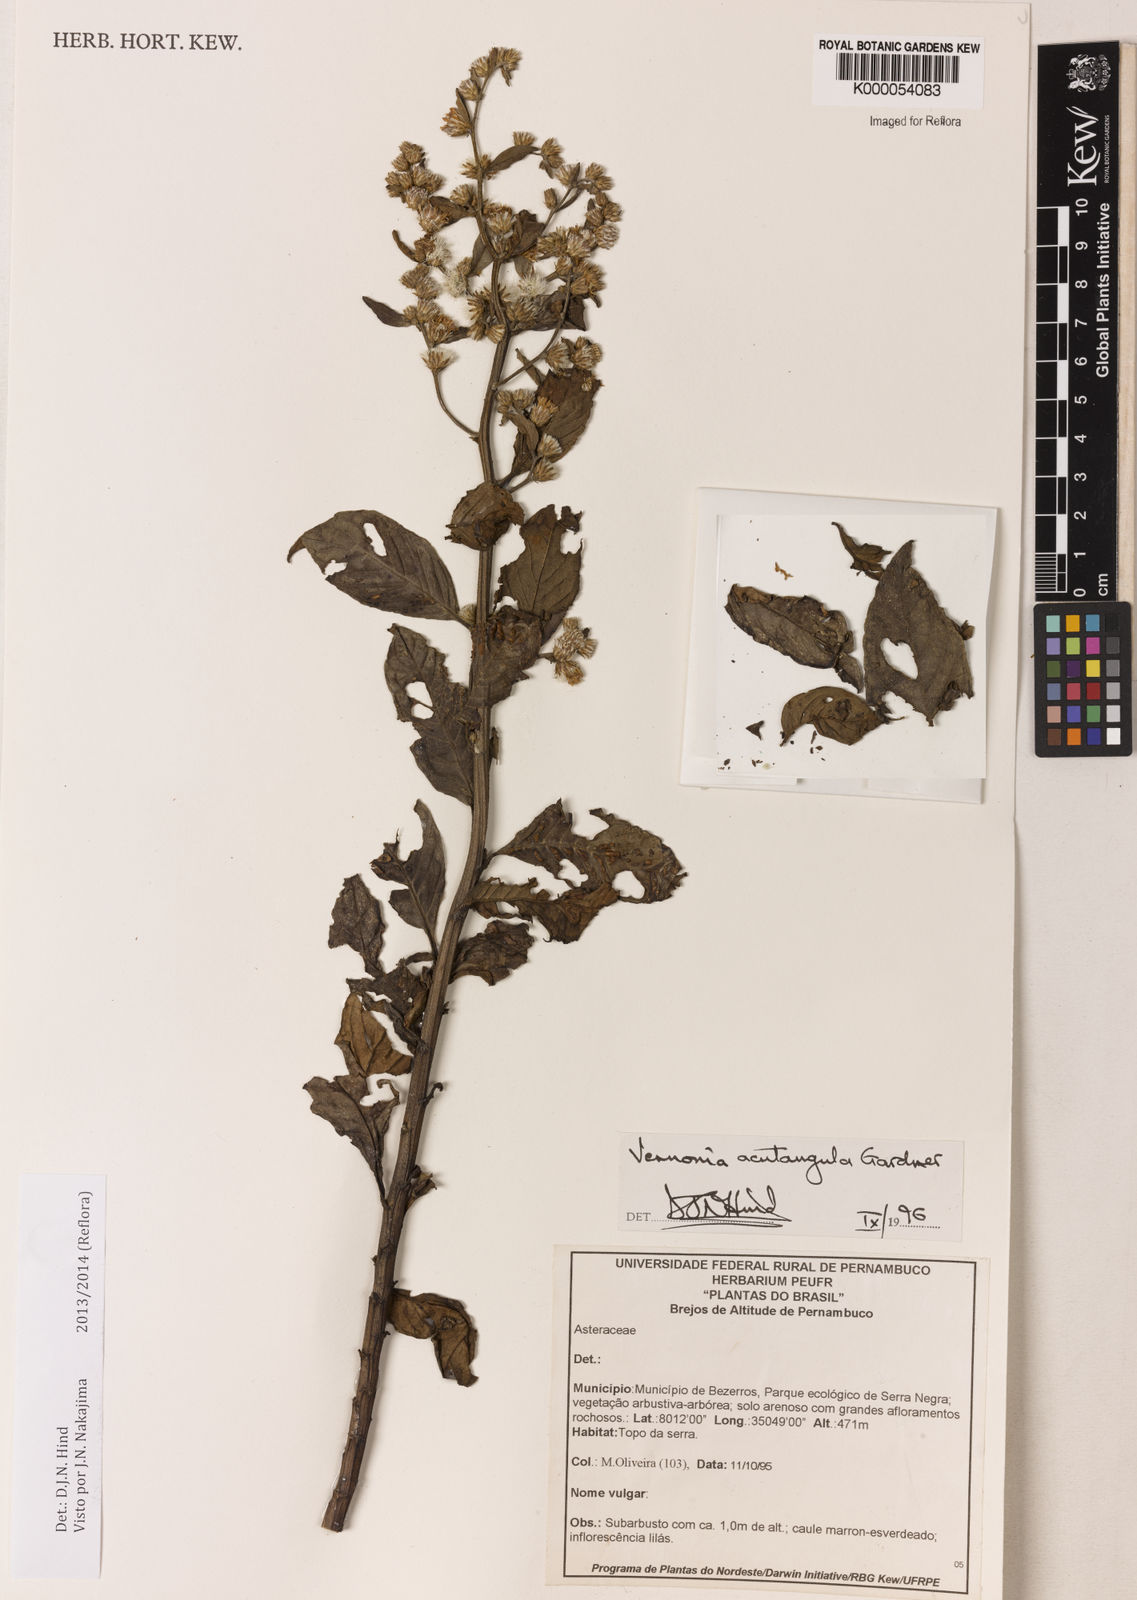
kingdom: Plantae
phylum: Tracheophyta
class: Magnoliopsida
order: Asterales
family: Asteraceae
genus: Lepidaploa
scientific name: Lepidaploa acutangula
